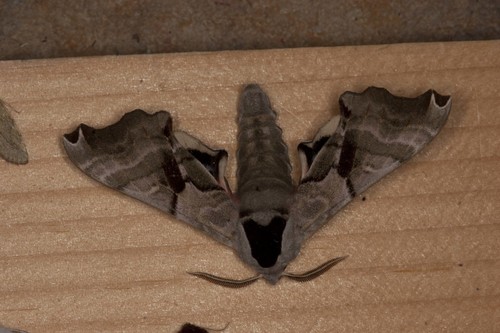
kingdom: Animalia
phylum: Arthropoda
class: Insecta
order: Lepidoptera
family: Sphingidae
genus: Smerinthus
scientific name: Smerinthus jamaicensis
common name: Twin spotted sphinx
